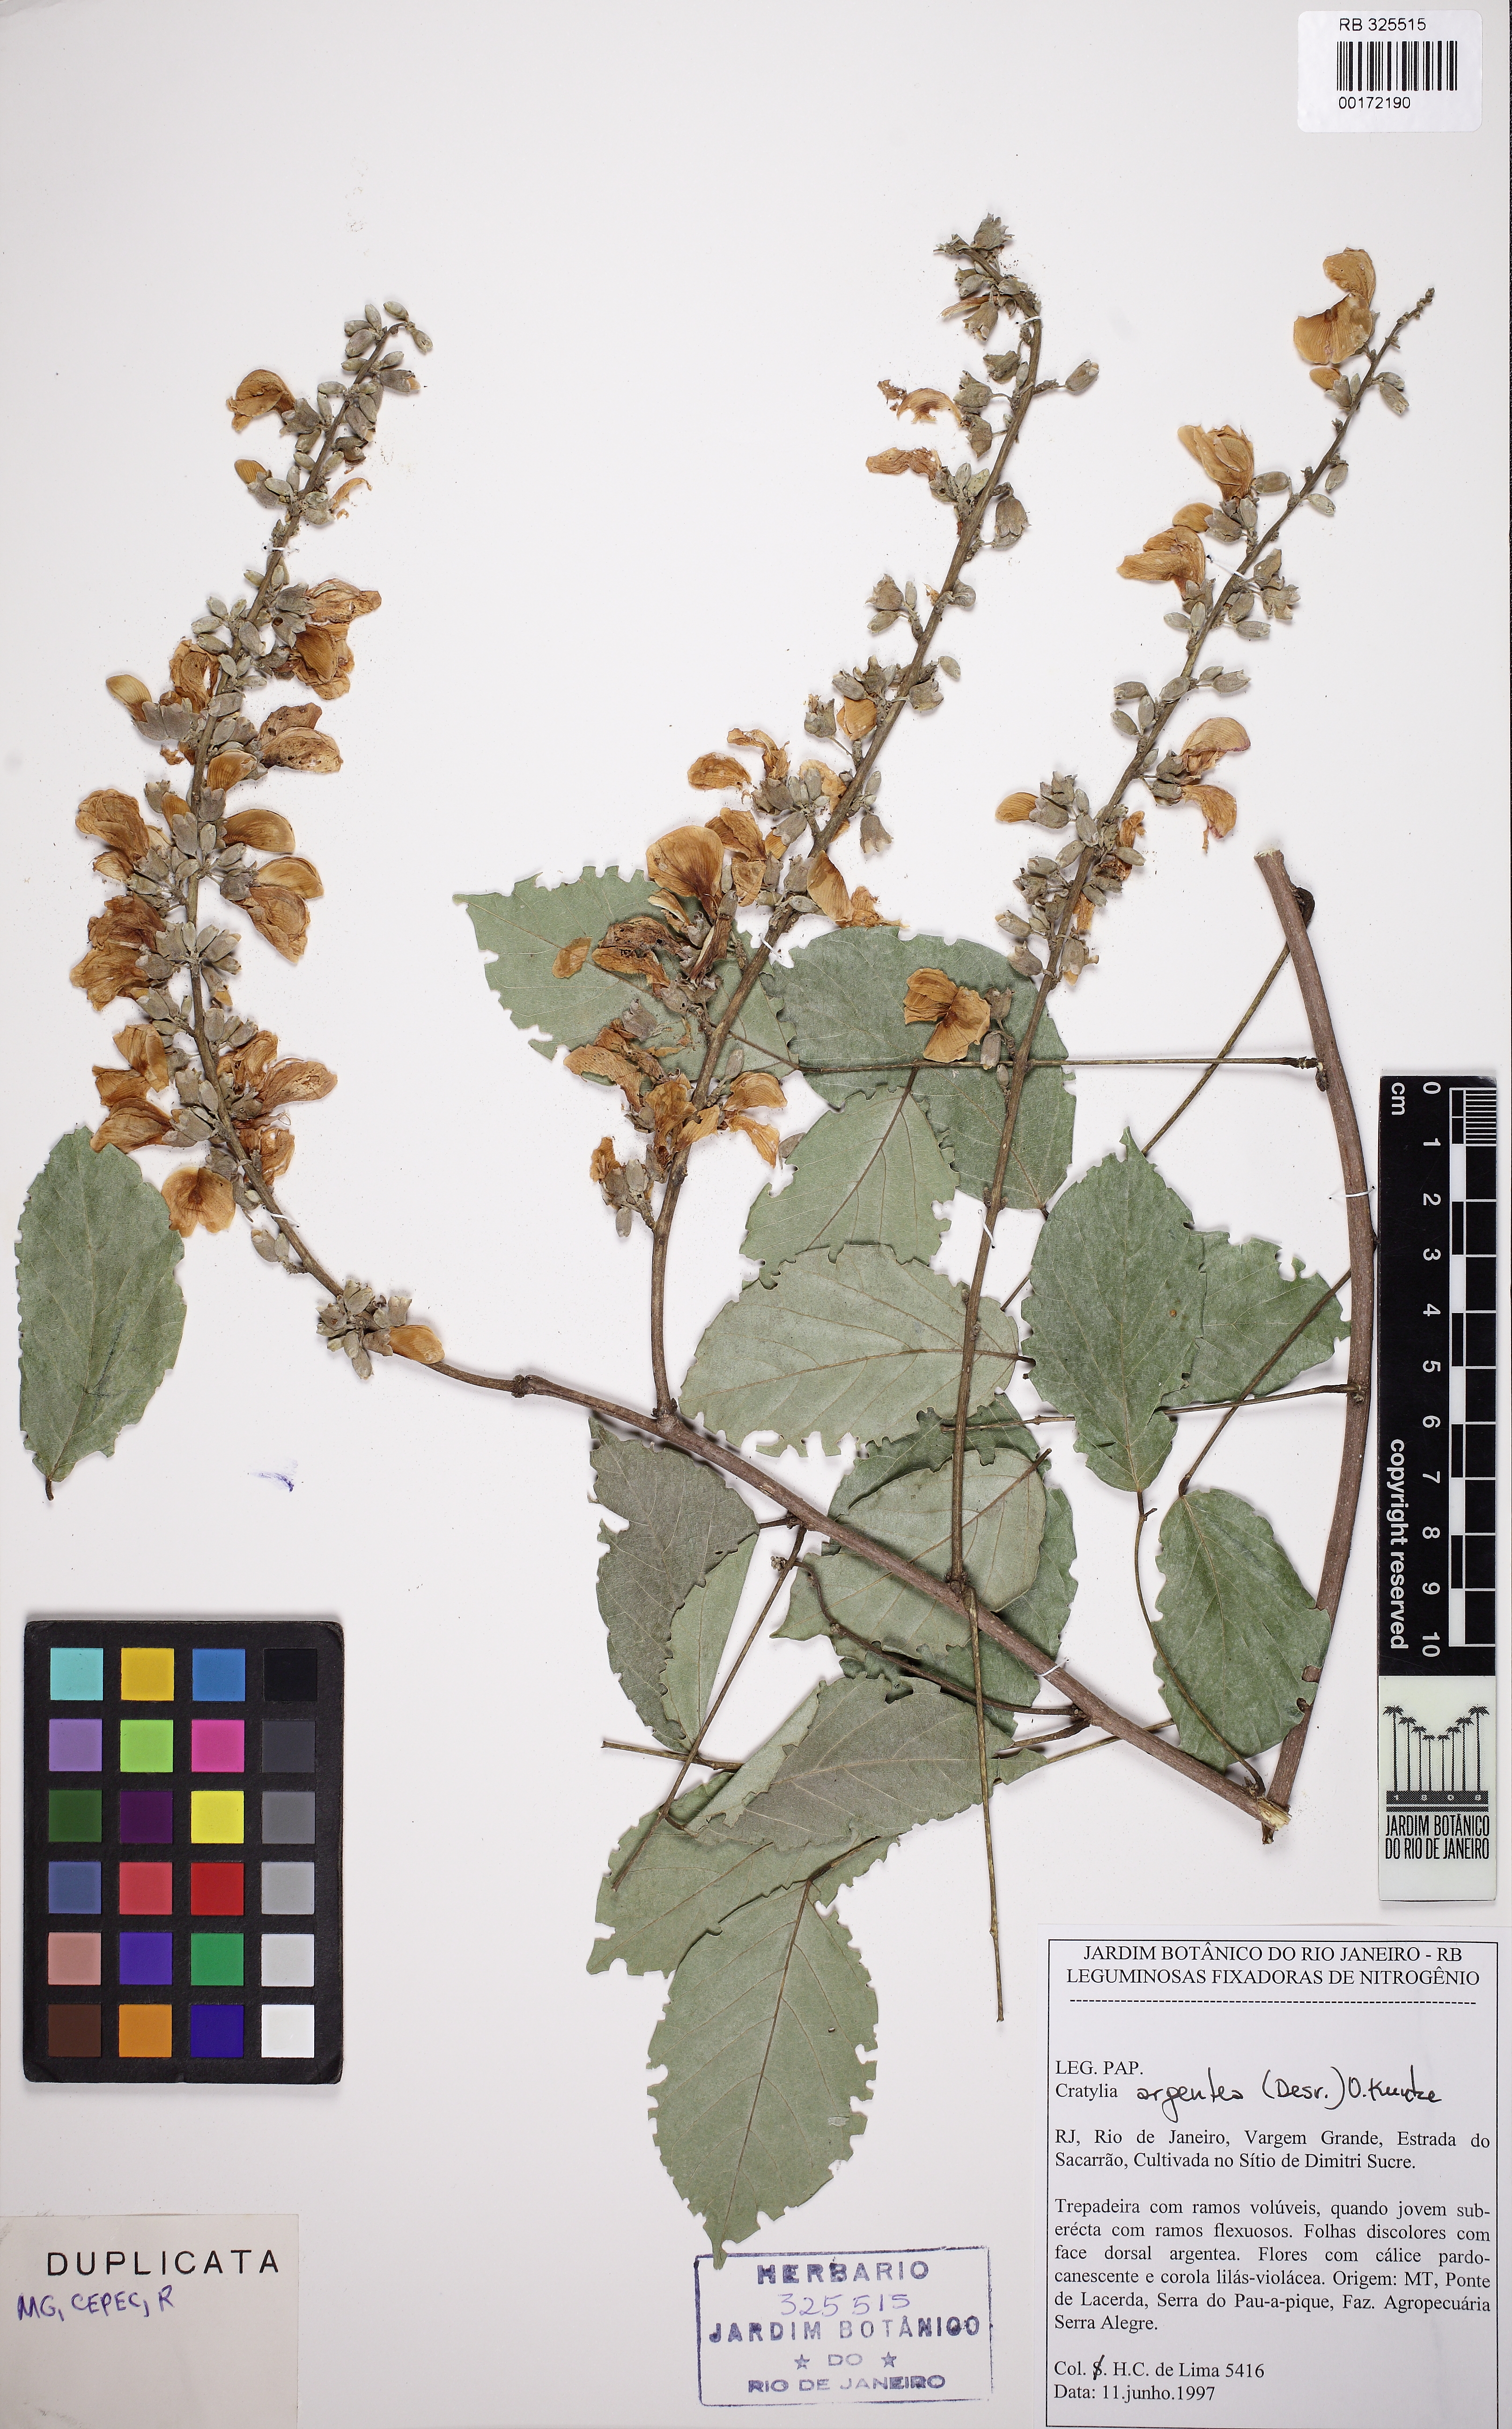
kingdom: Plantae
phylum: Tracheophyta
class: Magnoliopsida
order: Fabales
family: Fabaceae
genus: Cratylia
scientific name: Cratylia argentea
